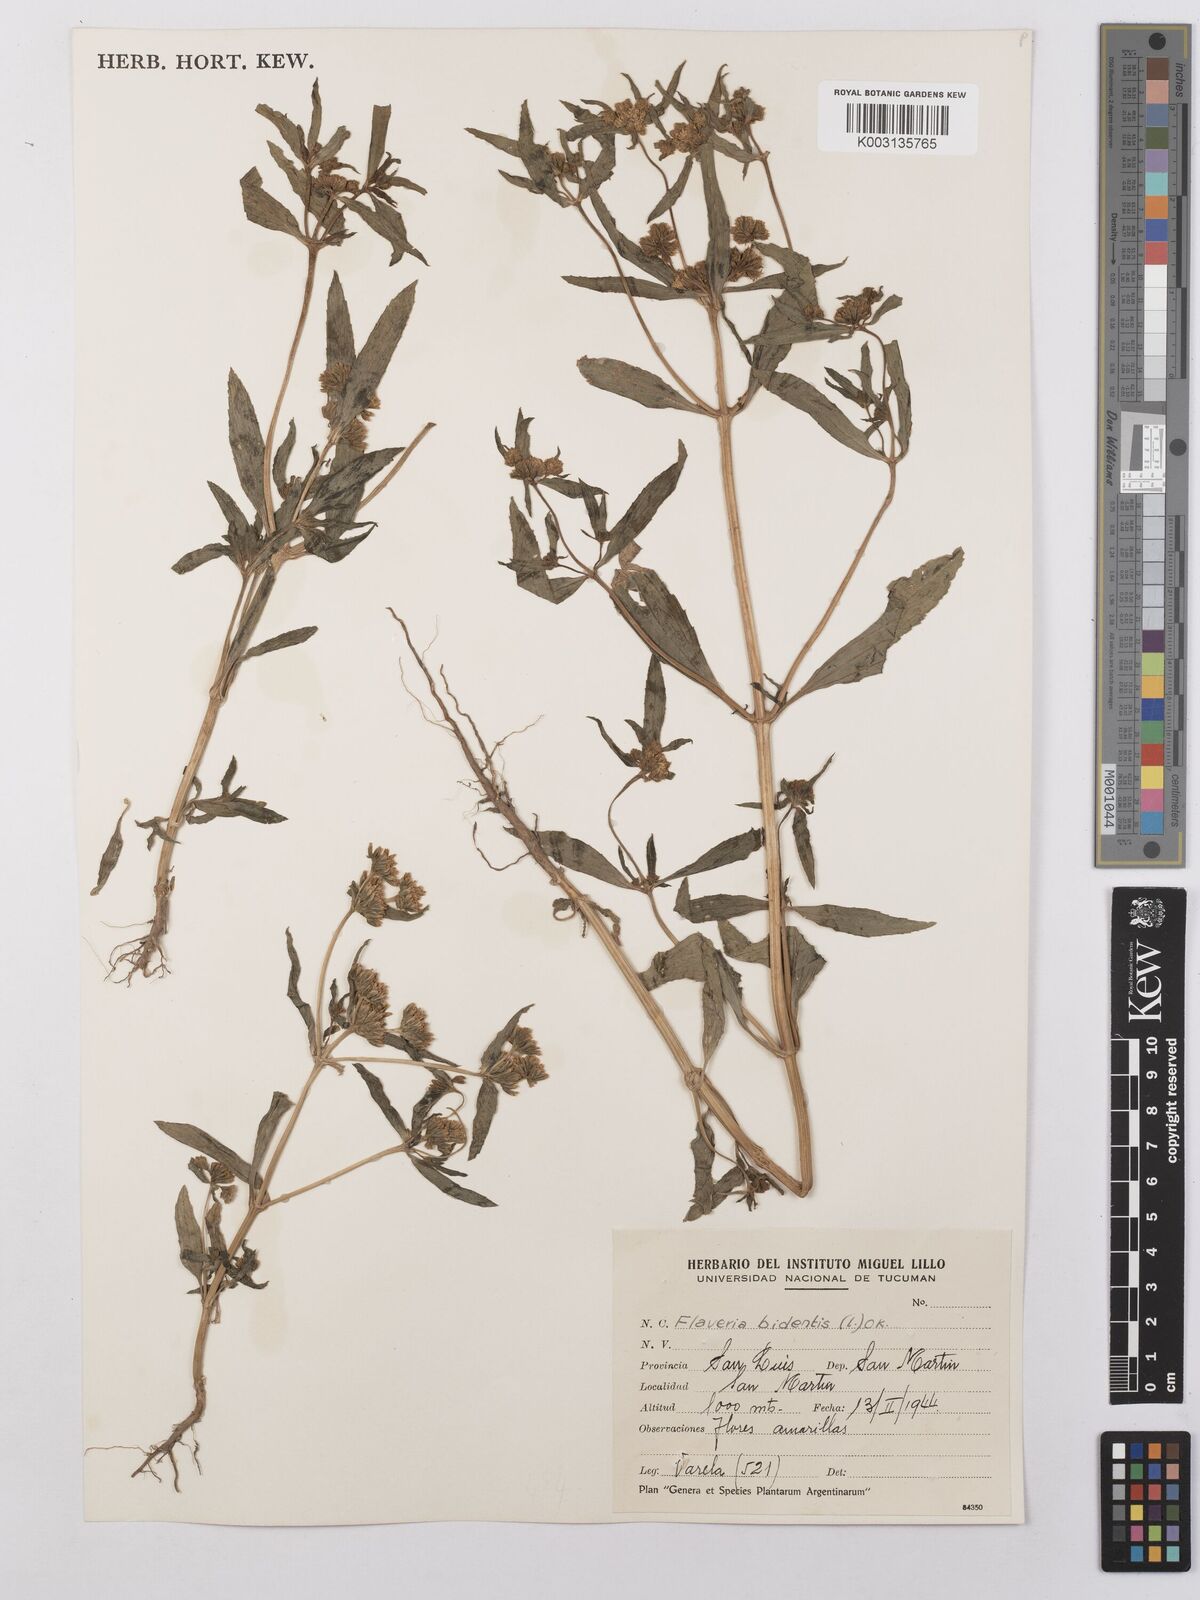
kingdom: Plantae
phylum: Tracheophyta
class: Magnoliopsida
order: Asterales
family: Asteraceae
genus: Flaveria
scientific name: Flaveria bidentis
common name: Coastal plain yellowtops
